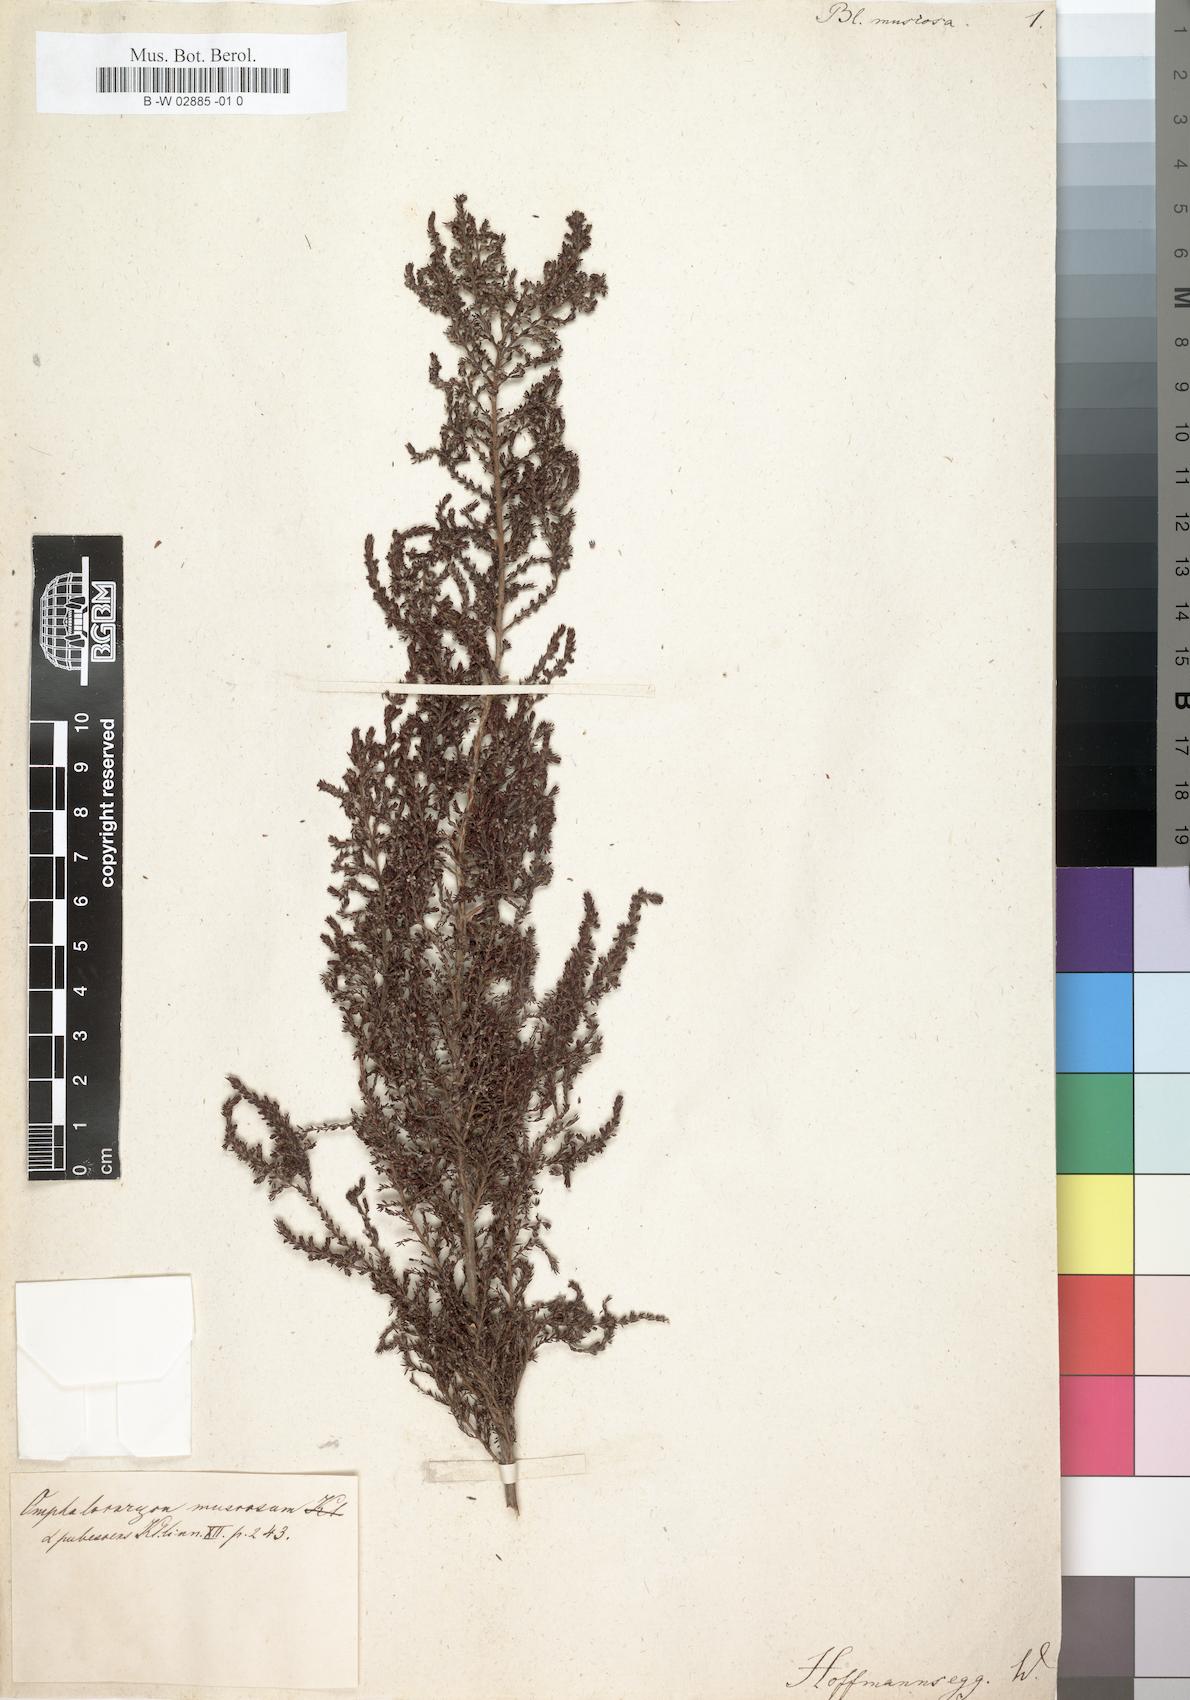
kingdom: Plantae
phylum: Tracheophyta
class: Magnoliopsida
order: Ericales
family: Ericaceae
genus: Erica
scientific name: Erica muscosa
